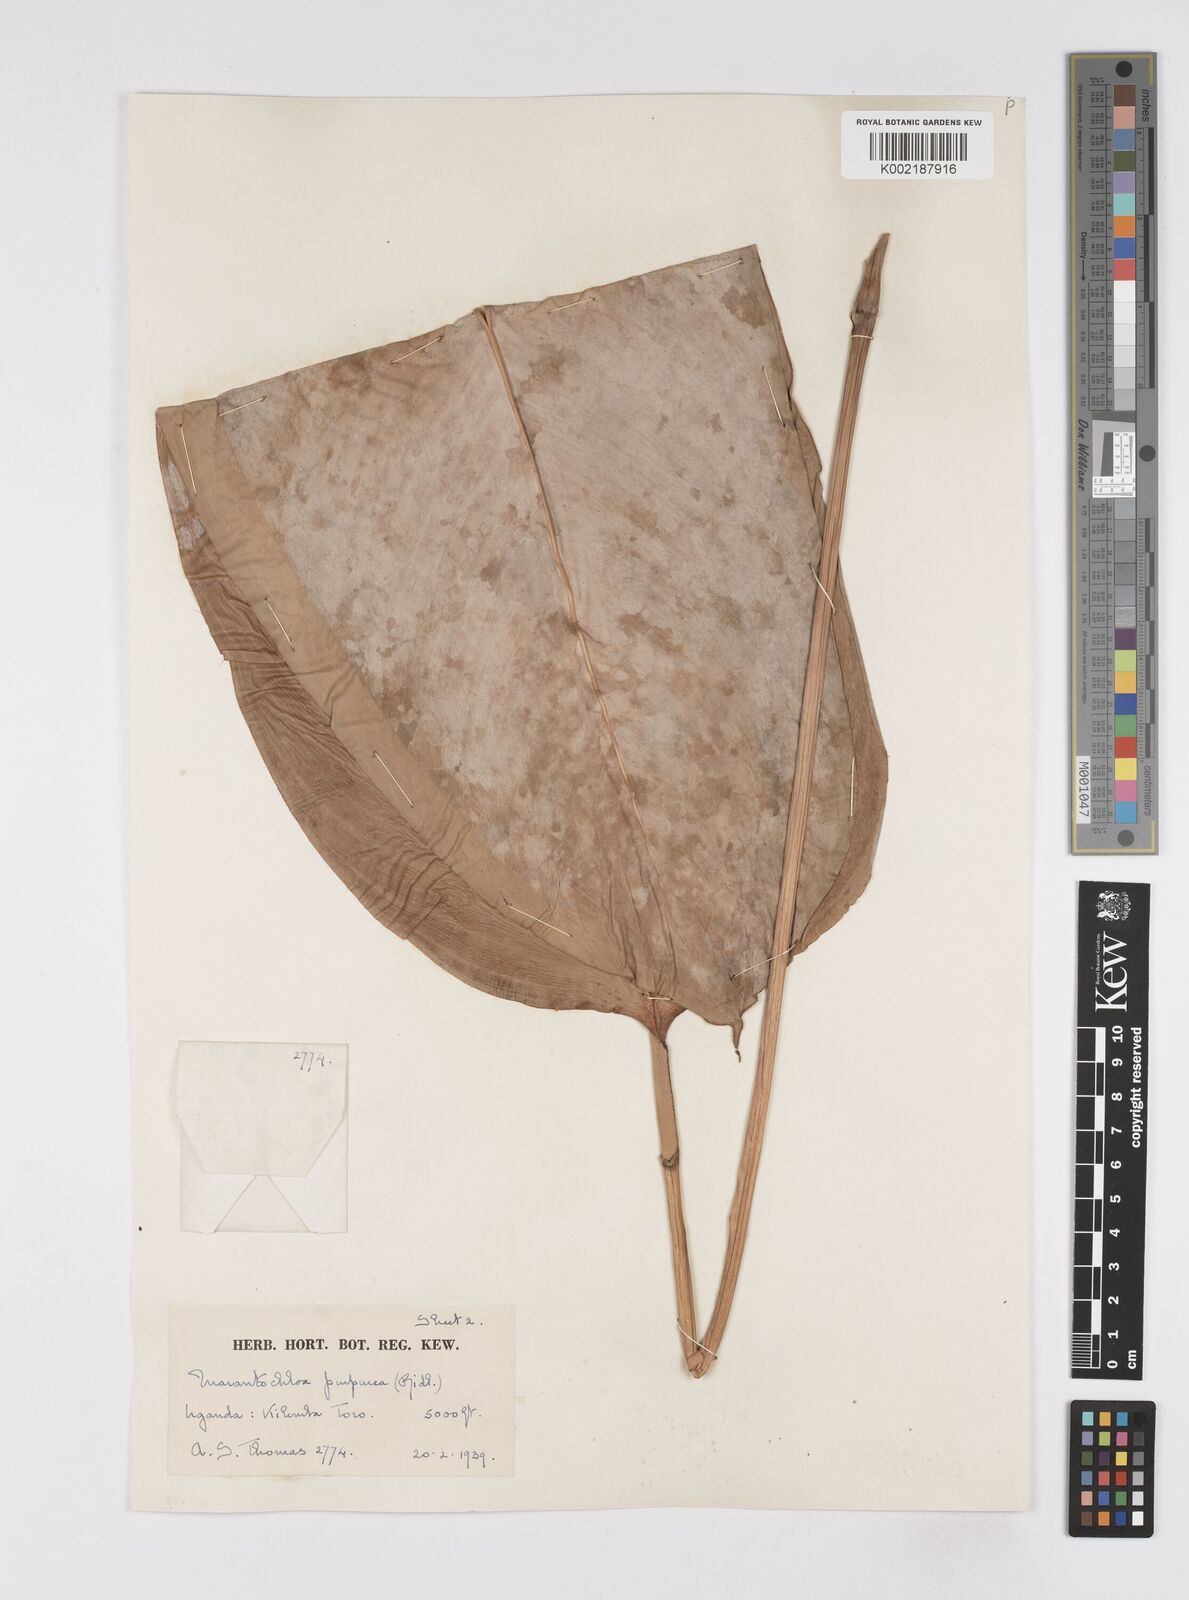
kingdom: Plantae
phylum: Tracheophyta
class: Liliopsida
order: Zingiberales
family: Marantaceae
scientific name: Marantaceae
